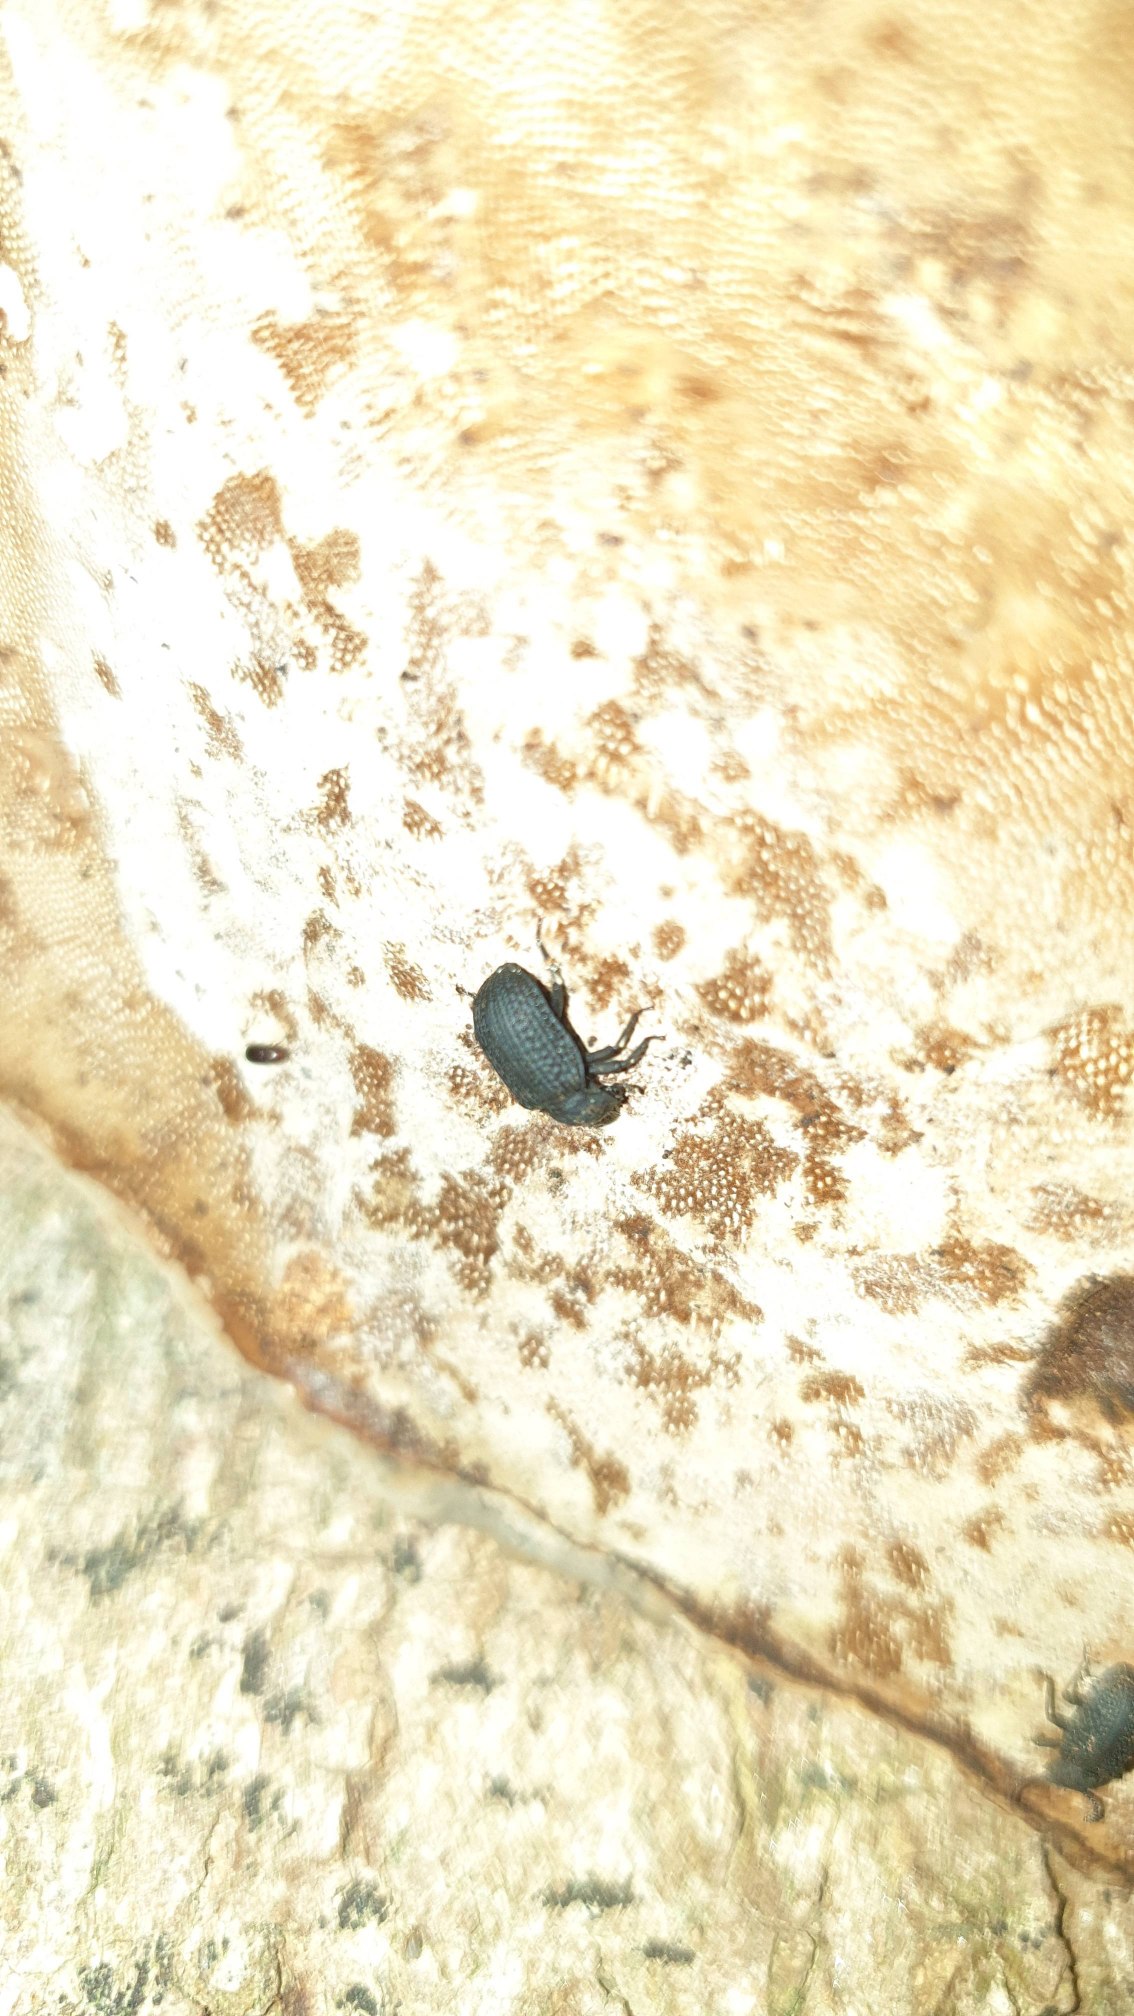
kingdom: Animalia
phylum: Arthropoda
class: Insecta
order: Coleoptera
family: Tenebrionidae
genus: Bolitophagus
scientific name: Bolitophagus reticulatus
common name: Netskyggebille
